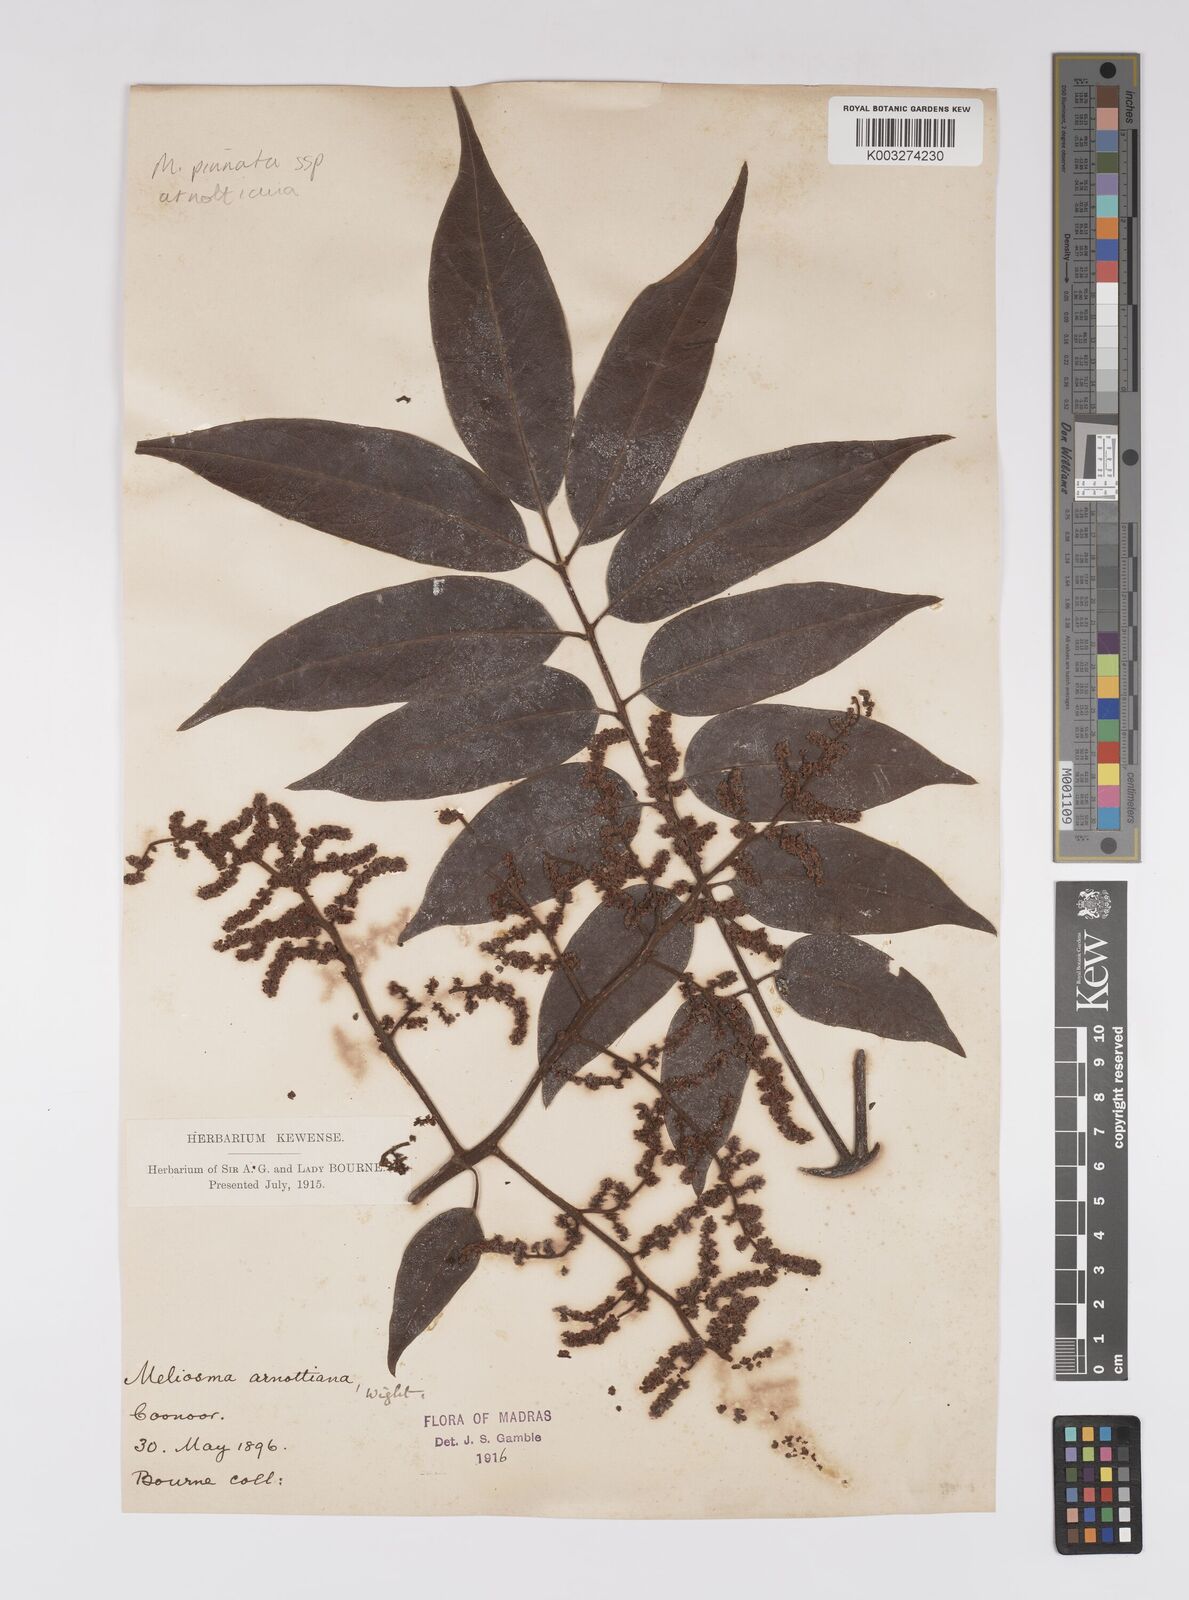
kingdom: Plantae
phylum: Tracheophyta
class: Magnoliopsida
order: Proteales
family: Sabiaceae
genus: Meliosma
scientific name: Meliosma rhoifolia
